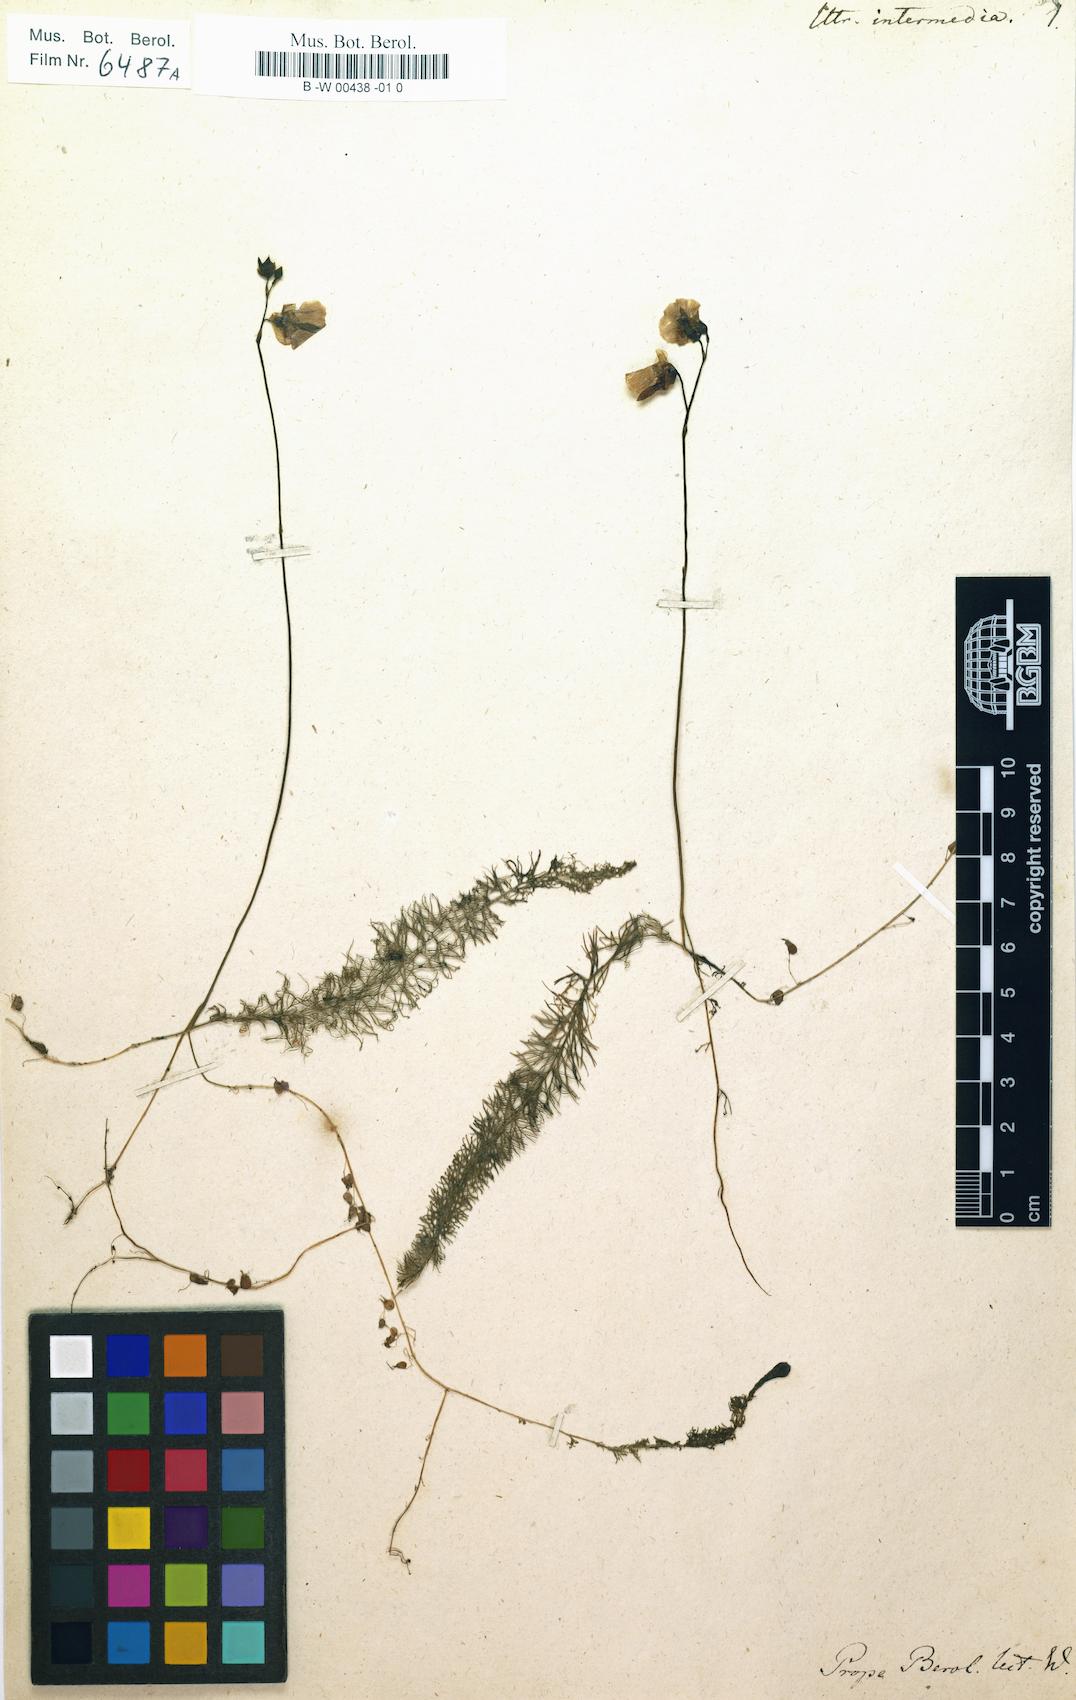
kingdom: Plantae
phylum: Tracheophyta
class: Magnoliopsida
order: Lamiales
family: Lentibulariaceae
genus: Utricularia
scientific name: Utricularia intermedia
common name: Intermediate bladderwort
